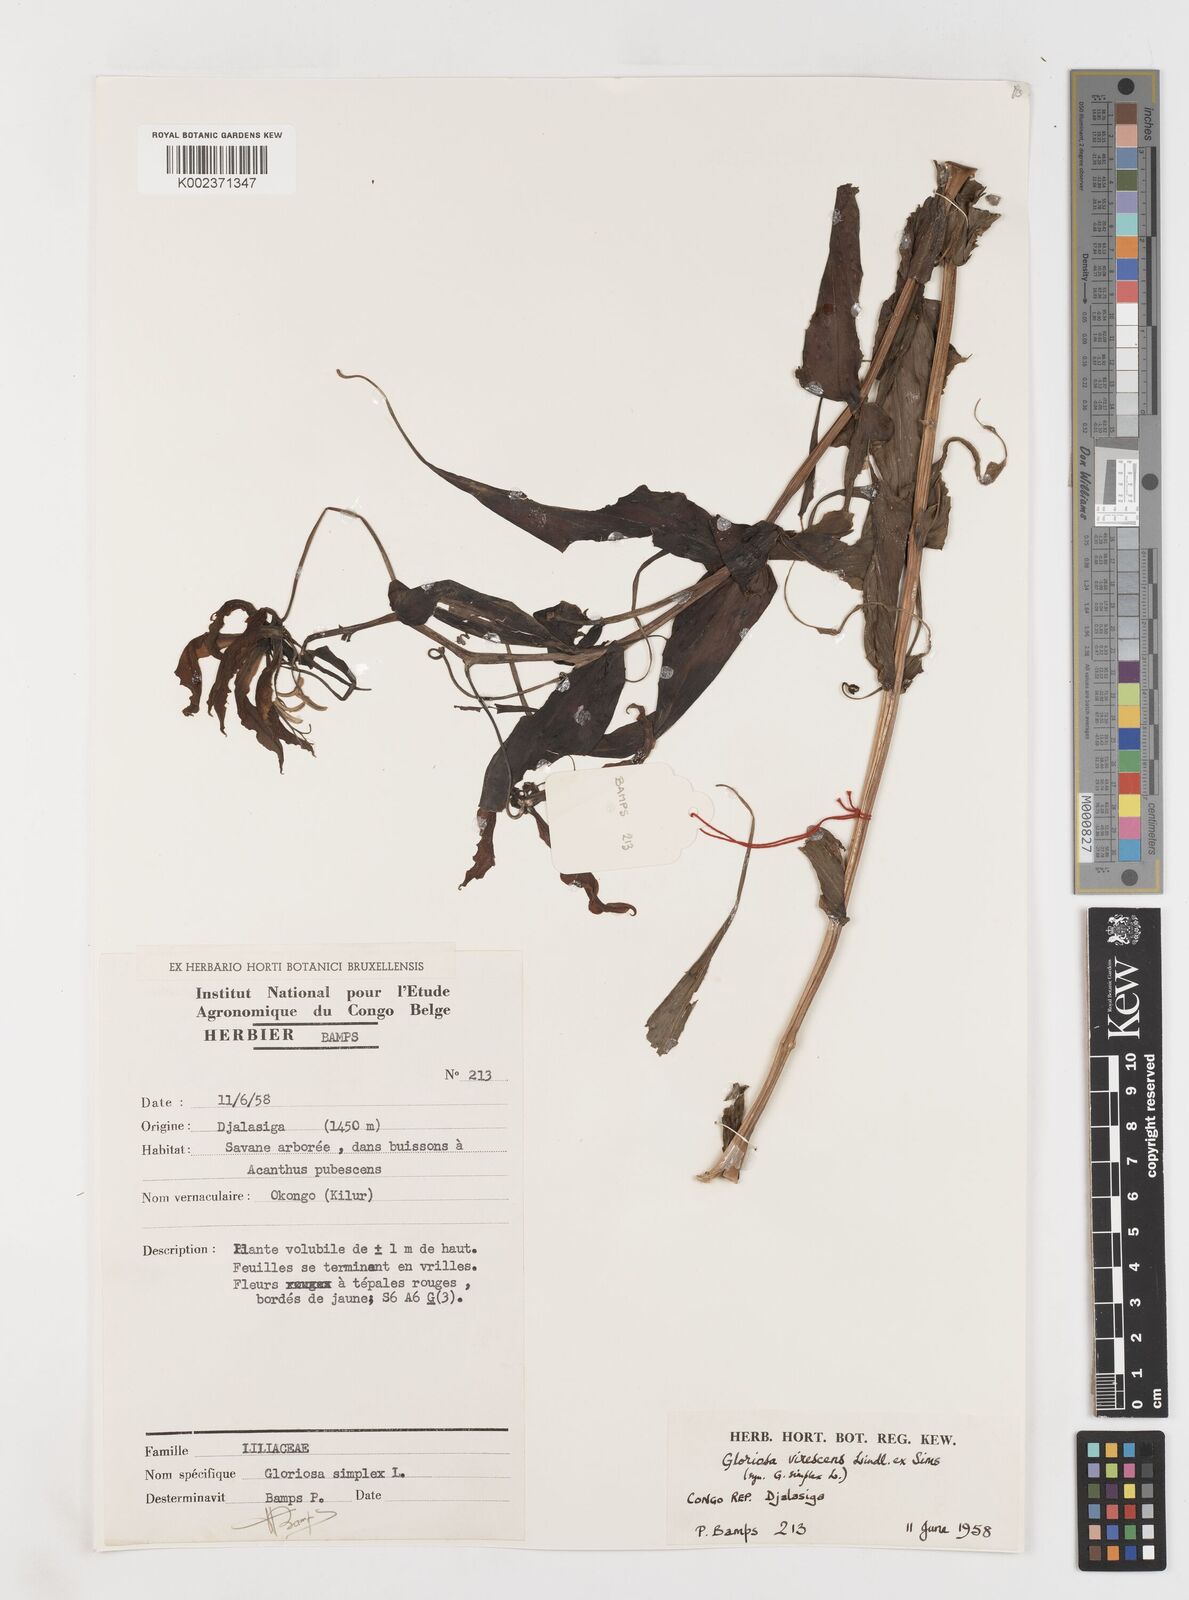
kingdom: Plantae
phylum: Tracheophyta
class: Liliopsida
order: Liliales
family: Colchicaceae
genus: Gloriosa
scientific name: Gloriosa superba
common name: Flame lily
